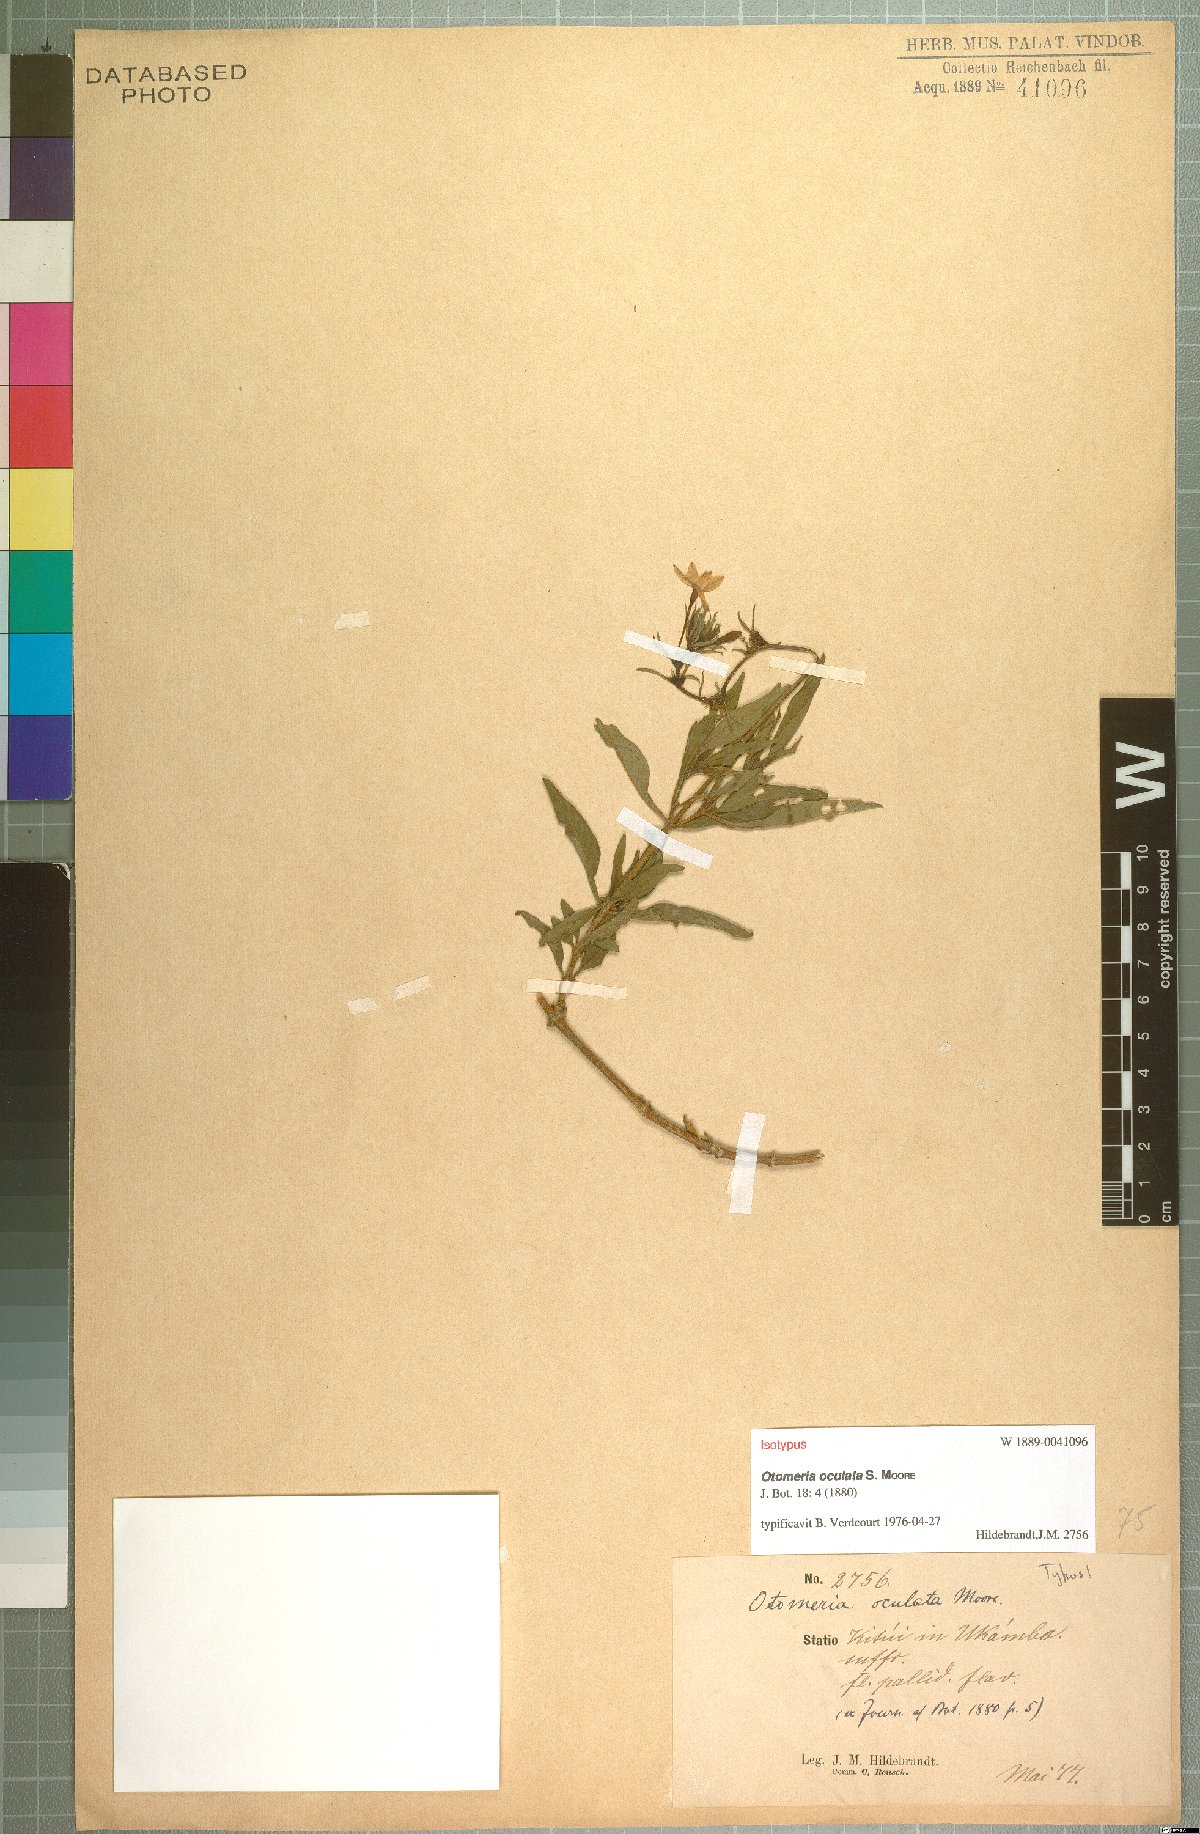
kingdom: Plantae
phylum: Tracheophyta
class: Magnoliopsida
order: Gentianales
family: Rubiaceae
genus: Otomeria
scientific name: Otomeria oculata
